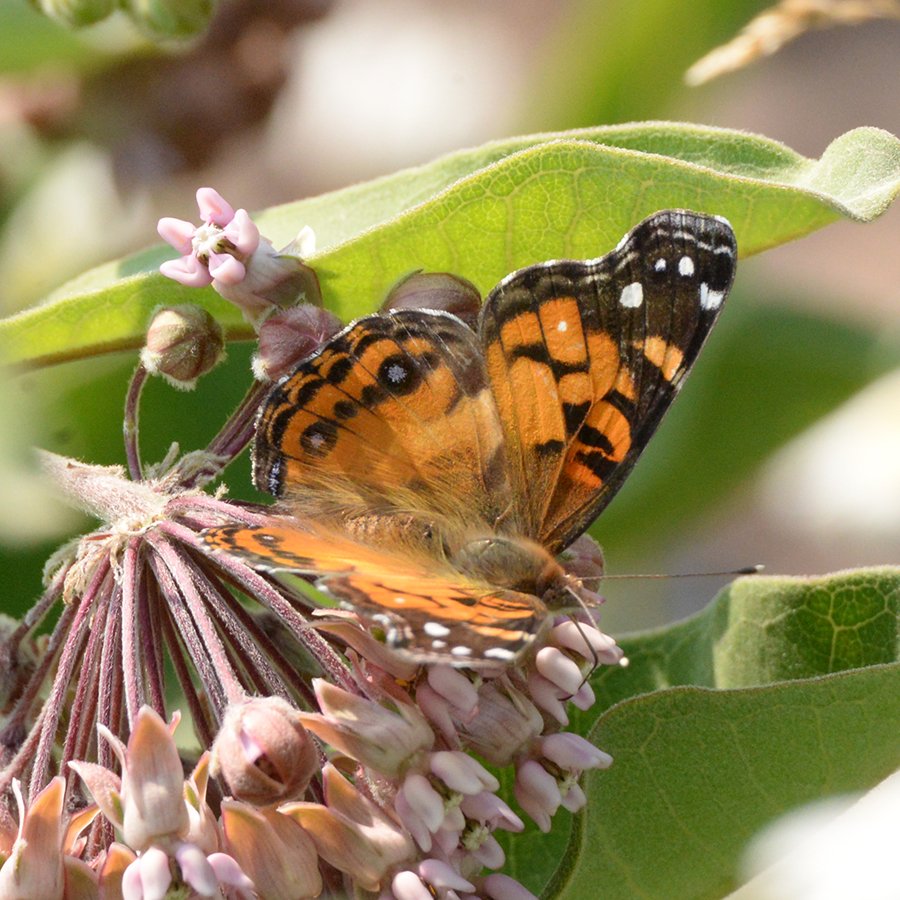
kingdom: Animalia
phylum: Arthropoda
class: Insecta
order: Lepidoptera
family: Nymphalidae
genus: Vanessa
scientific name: Vanessa virginiensis
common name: American Lady
